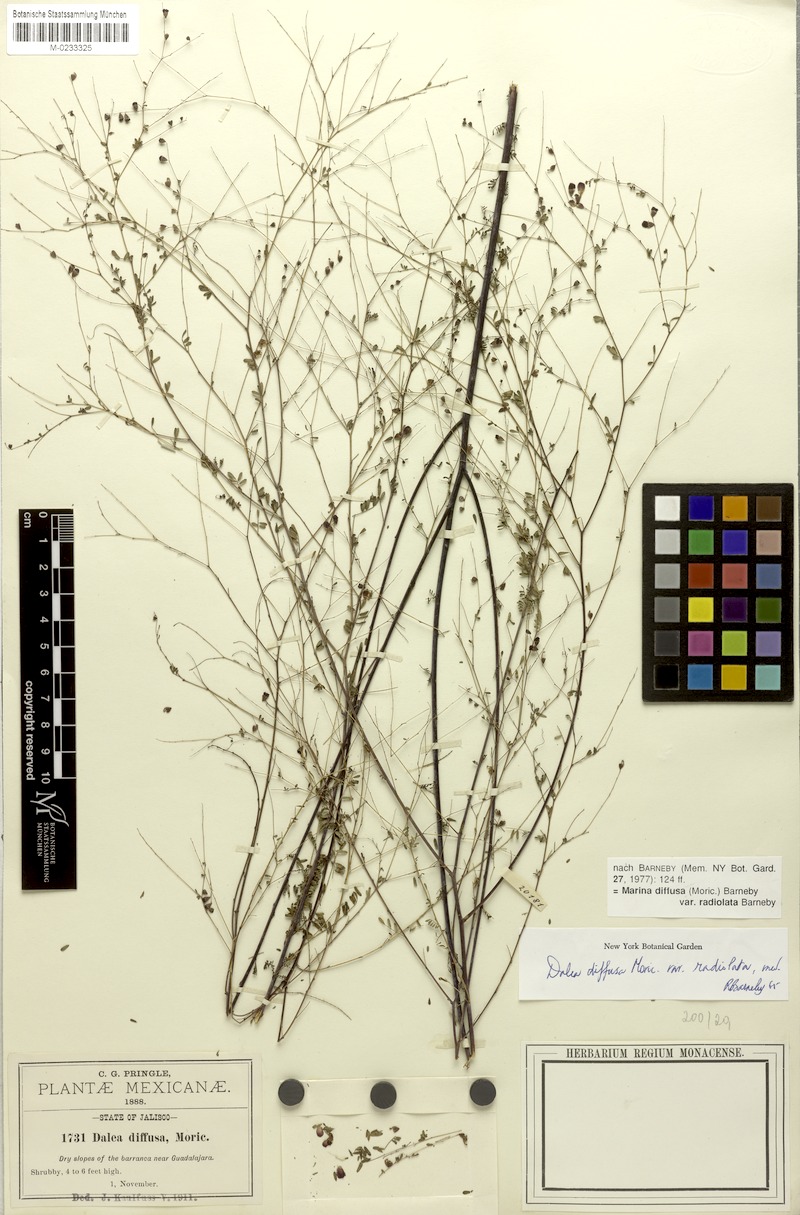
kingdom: Plantae
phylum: Tracheophyta
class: Magnoliopsida
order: Fabales
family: Fabaceae
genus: Marina
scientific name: Marina diffusa
